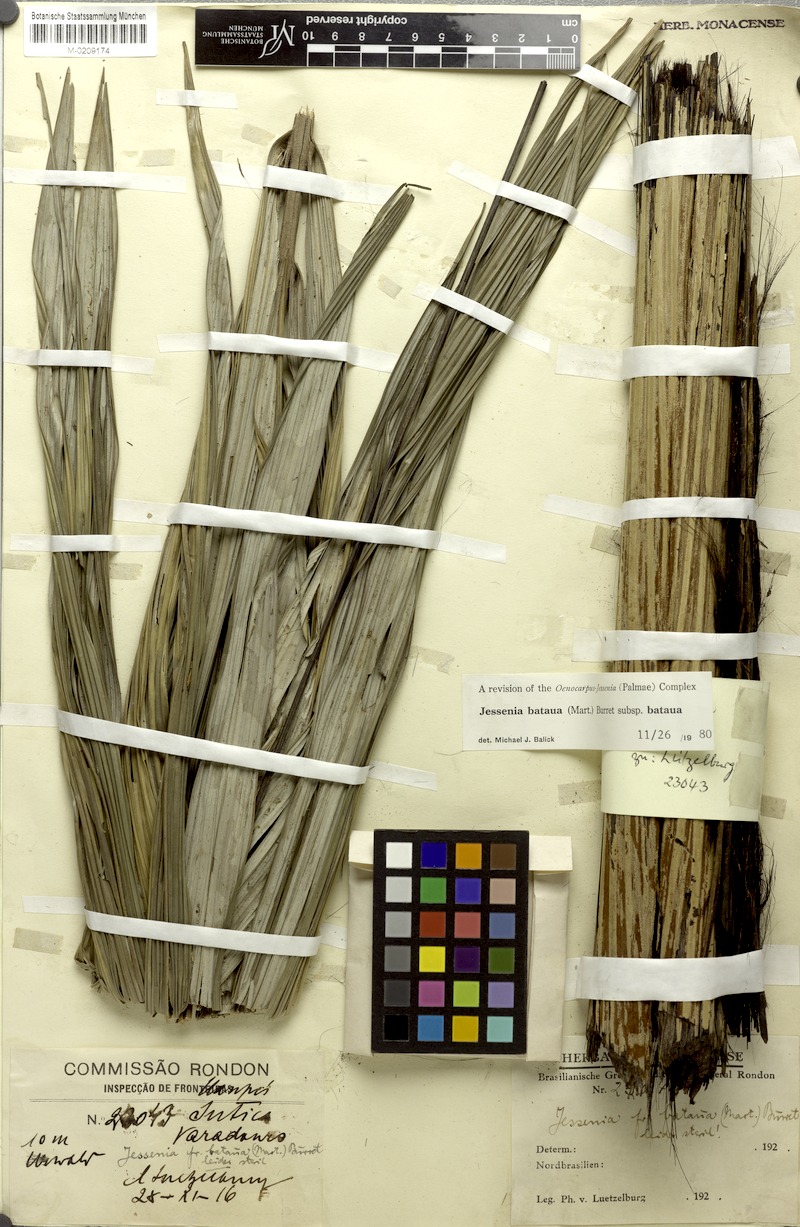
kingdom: Plantae
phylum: Tracheophyta
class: Liliopsida
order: Arecales
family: Arecaceae
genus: Oenocarpus
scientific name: Oenocarpus bataua
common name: Bataua palm
